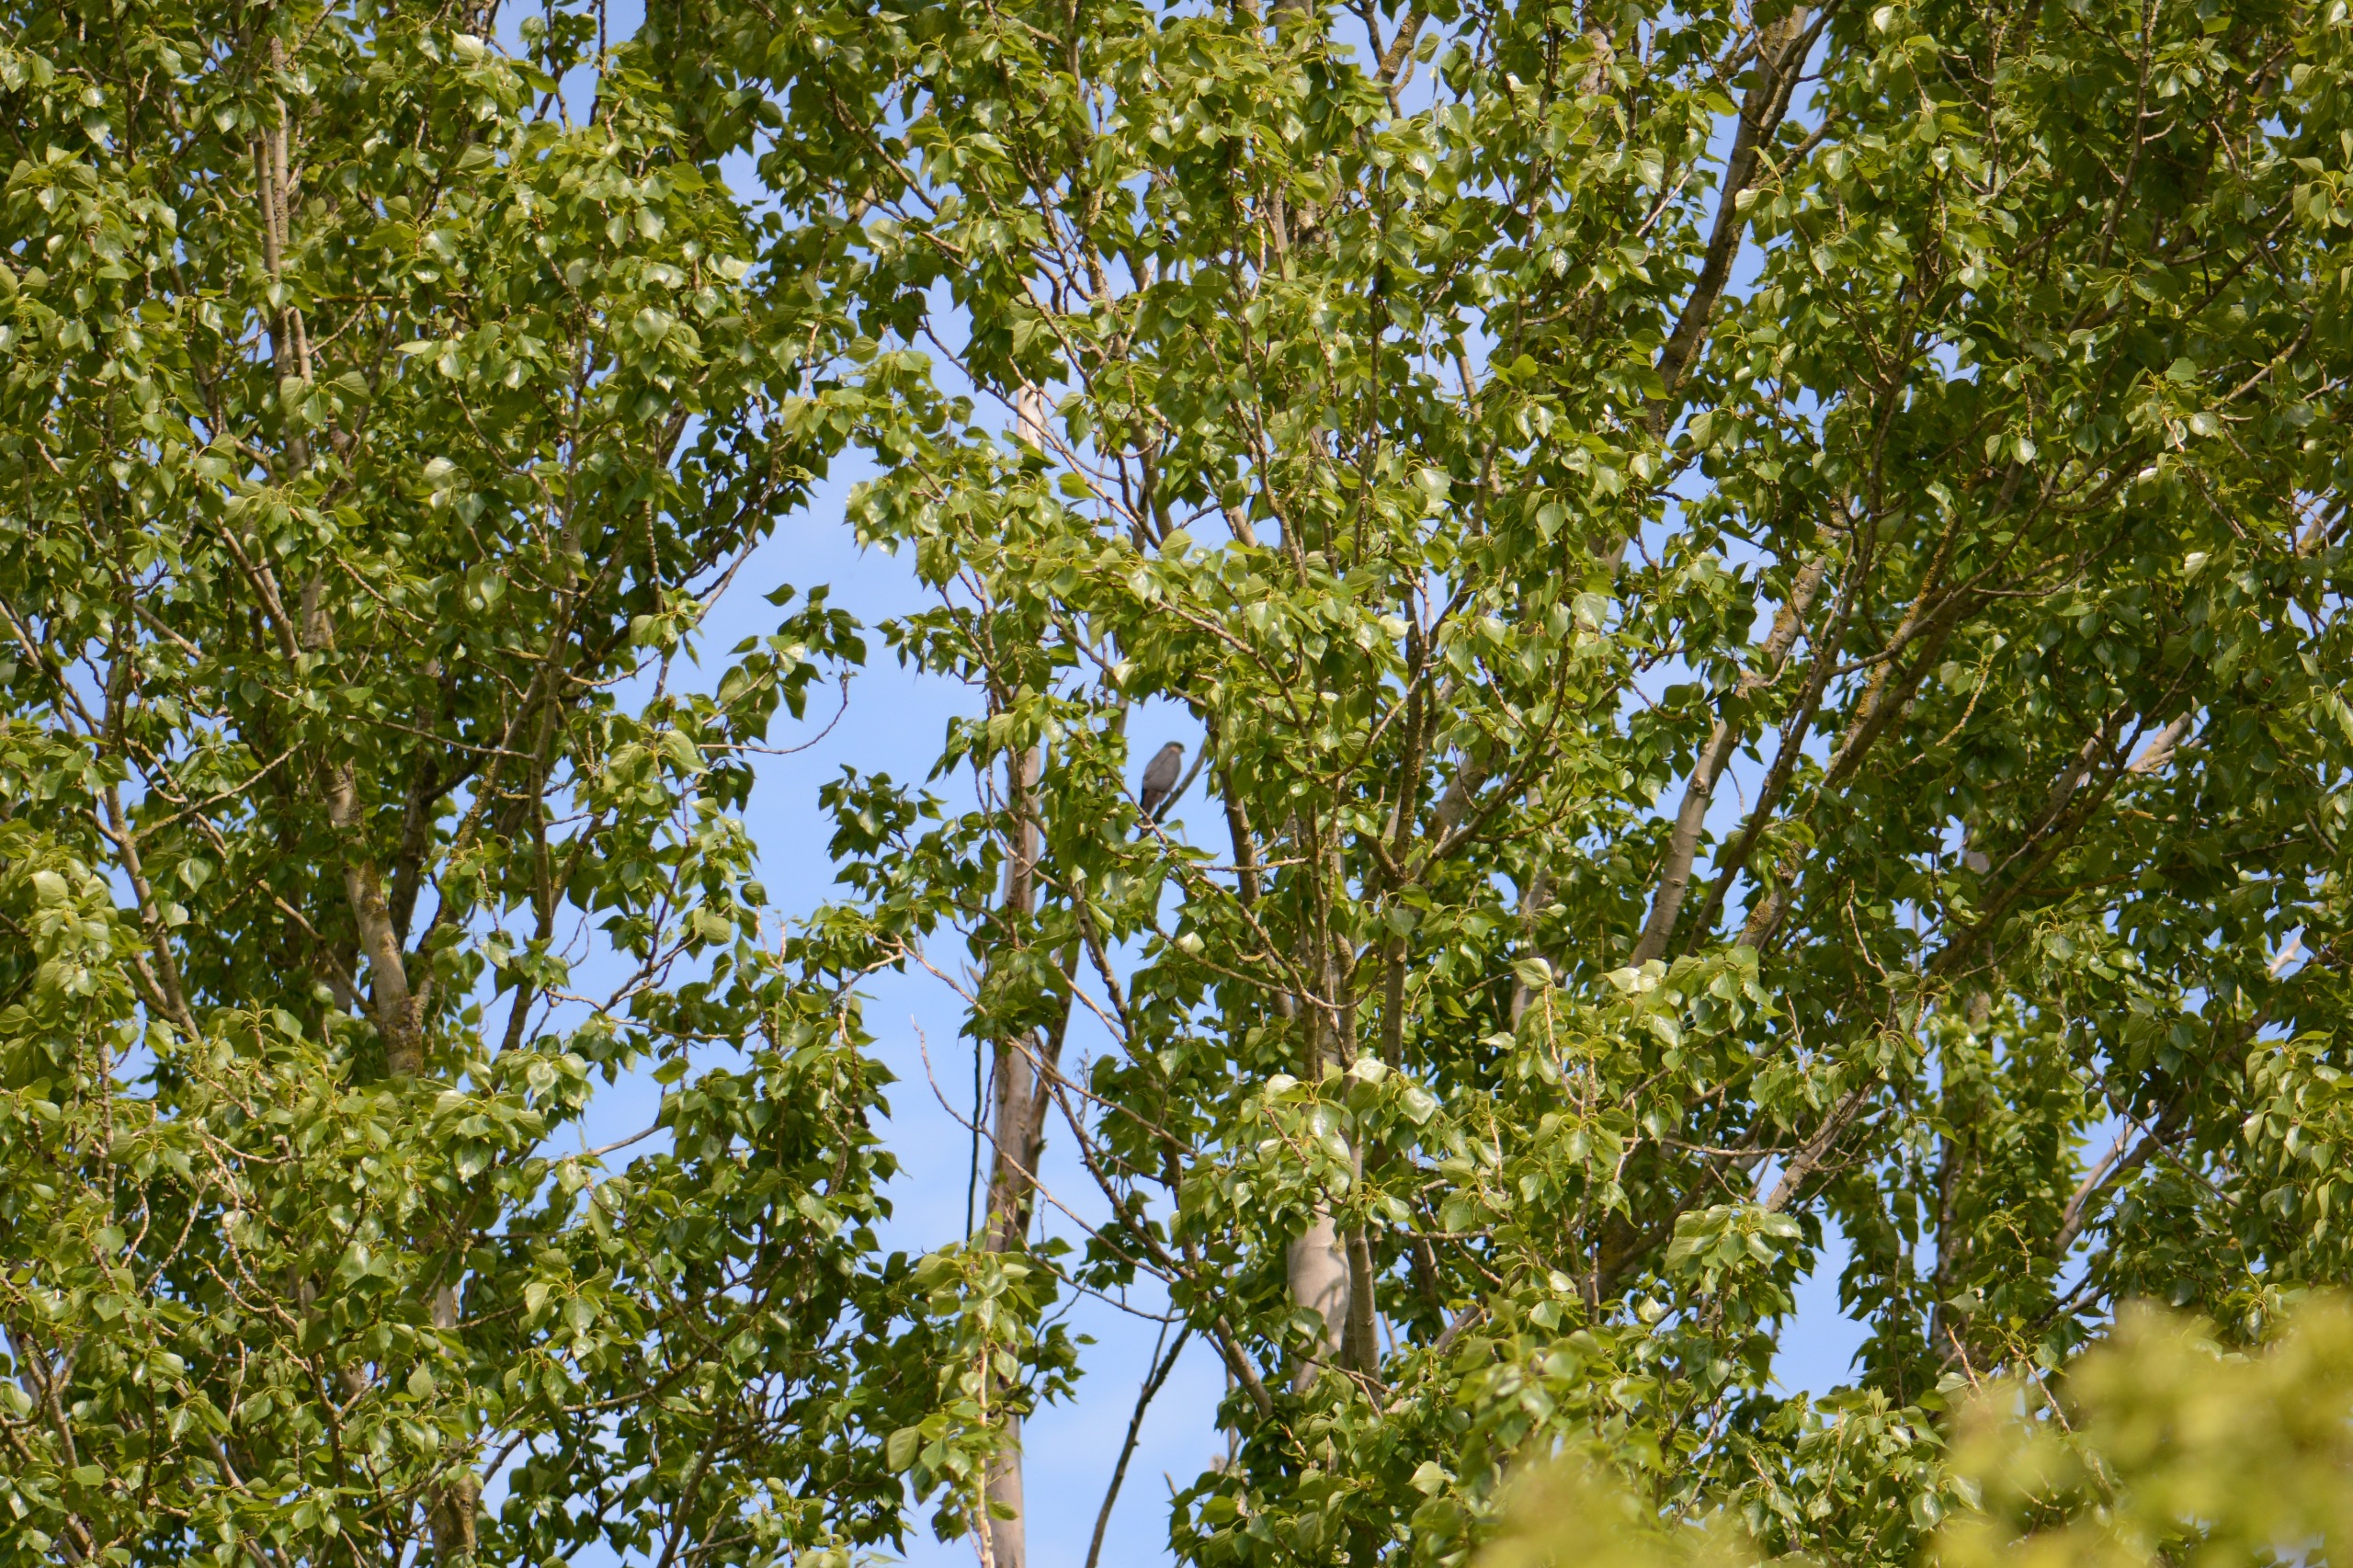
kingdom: Animalia
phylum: Chordata
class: Aves
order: Accipitriformes
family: Accipitridae
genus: Accipiter
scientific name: Accipiter nisus
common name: Spurvehøg
